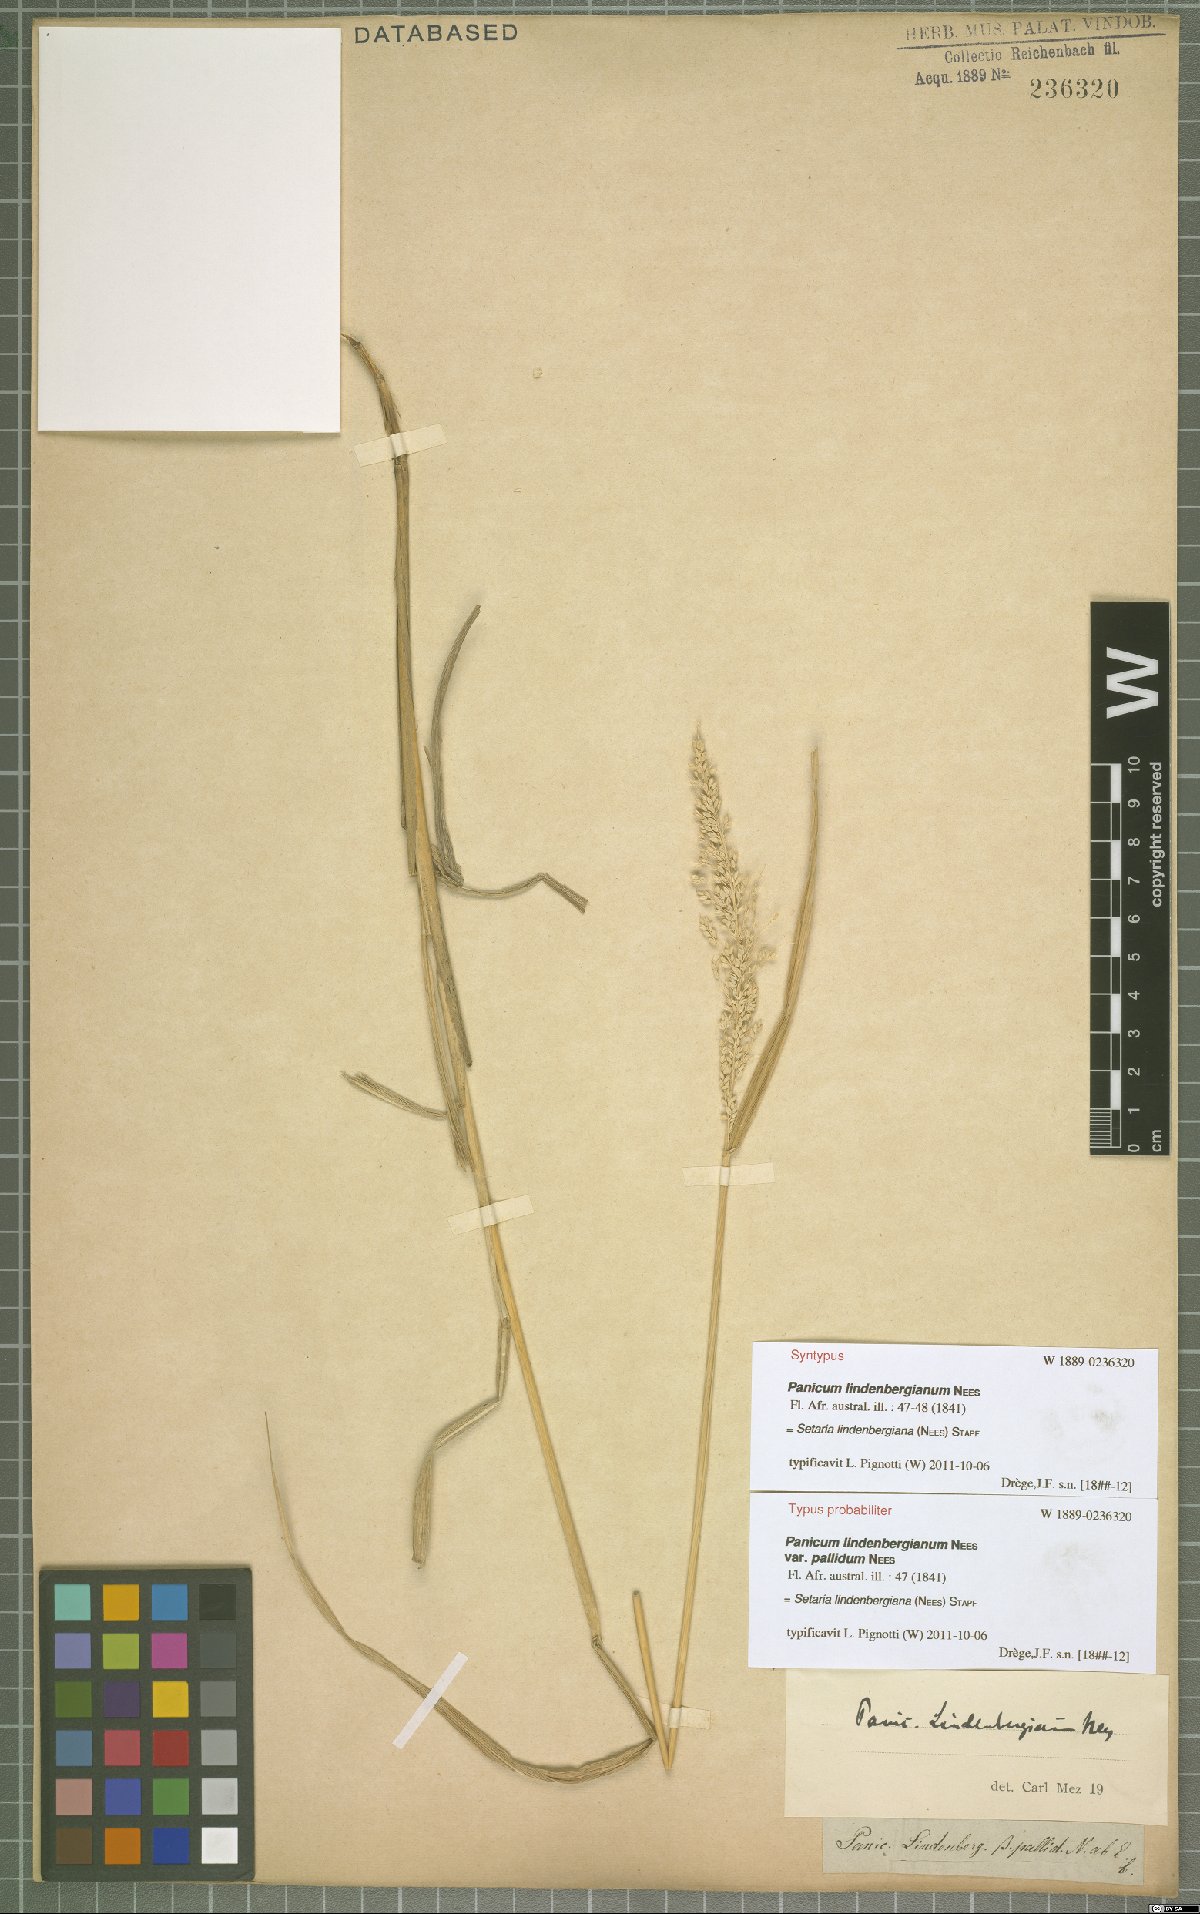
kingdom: Plantae
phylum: Tracheophyta
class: Liliopsida
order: Poales
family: Poaceae
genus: Setaria
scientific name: Setaria lindenbergiana
